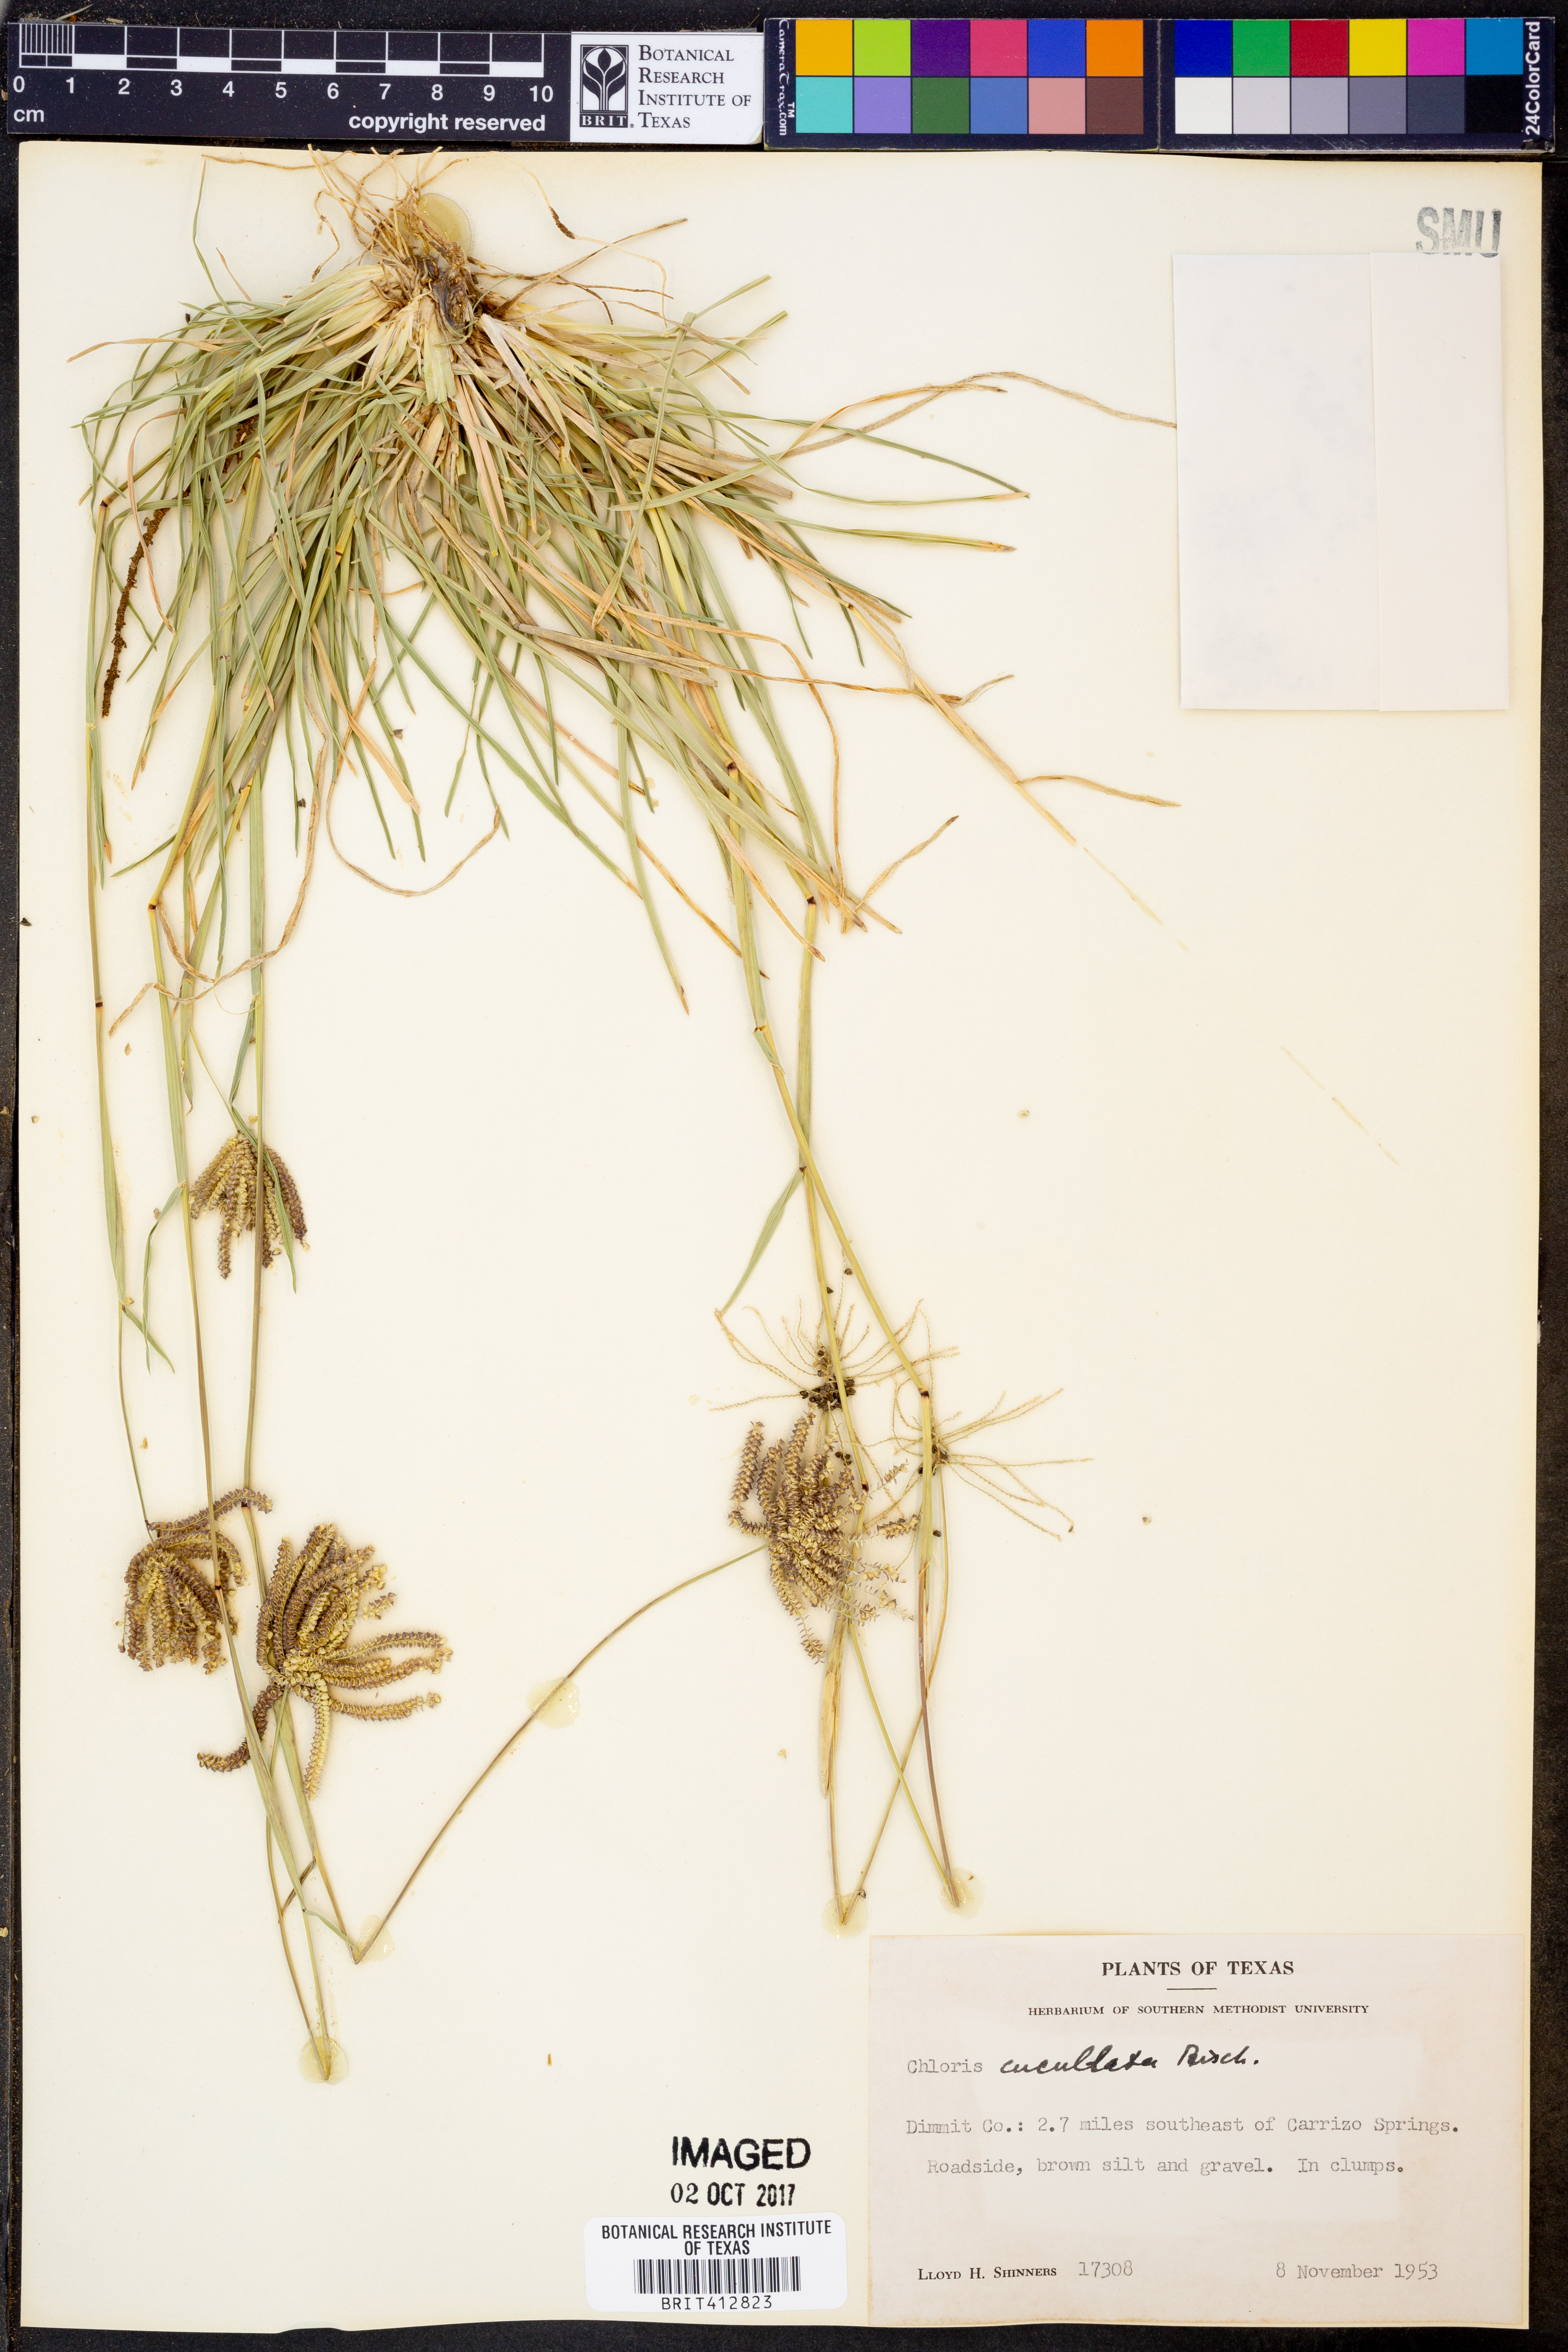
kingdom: Plantae
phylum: Tracheophyta
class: Liliopsida
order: Poales
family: Poaceae
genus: Chloris
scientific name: Chloris cucullata
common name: Hooded windmill grass
